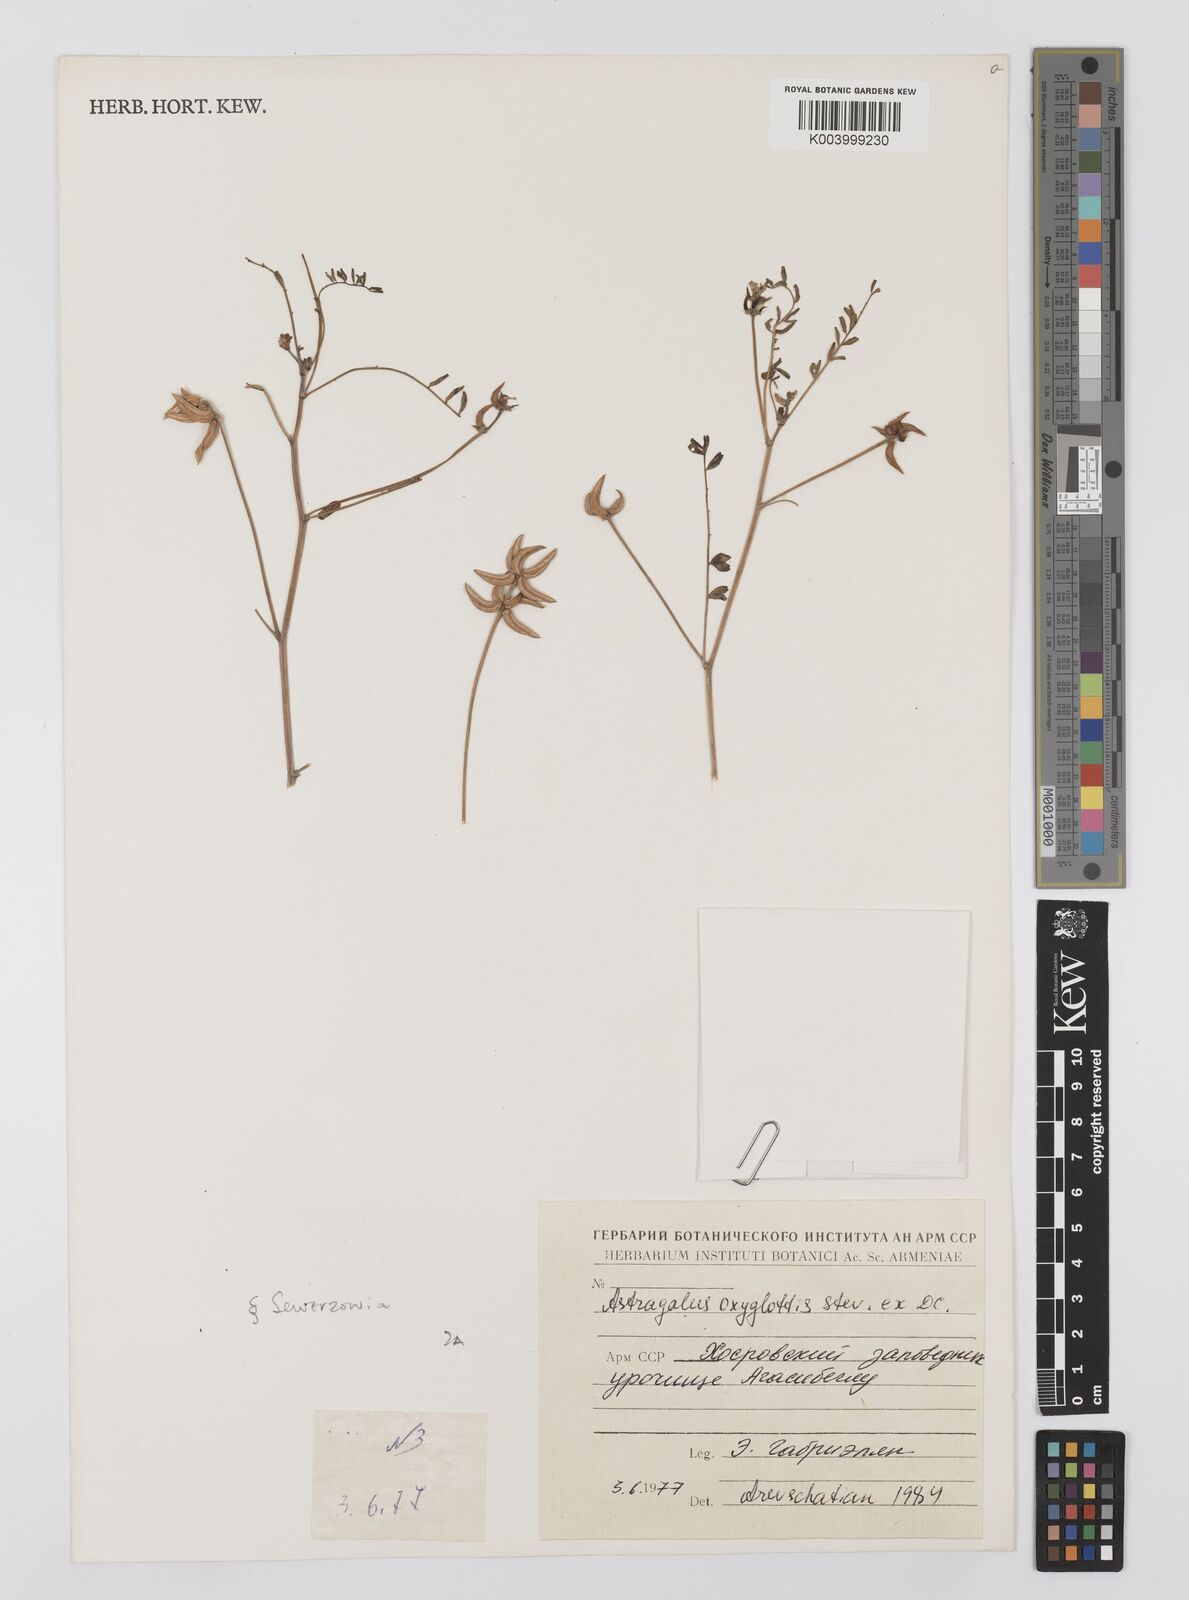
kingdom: Plantae
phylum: Tracheophyta
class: Magnoliopsida
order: Fabales
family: Fabaceae
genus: Astragalus
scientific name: Astragalus oxyglottis
